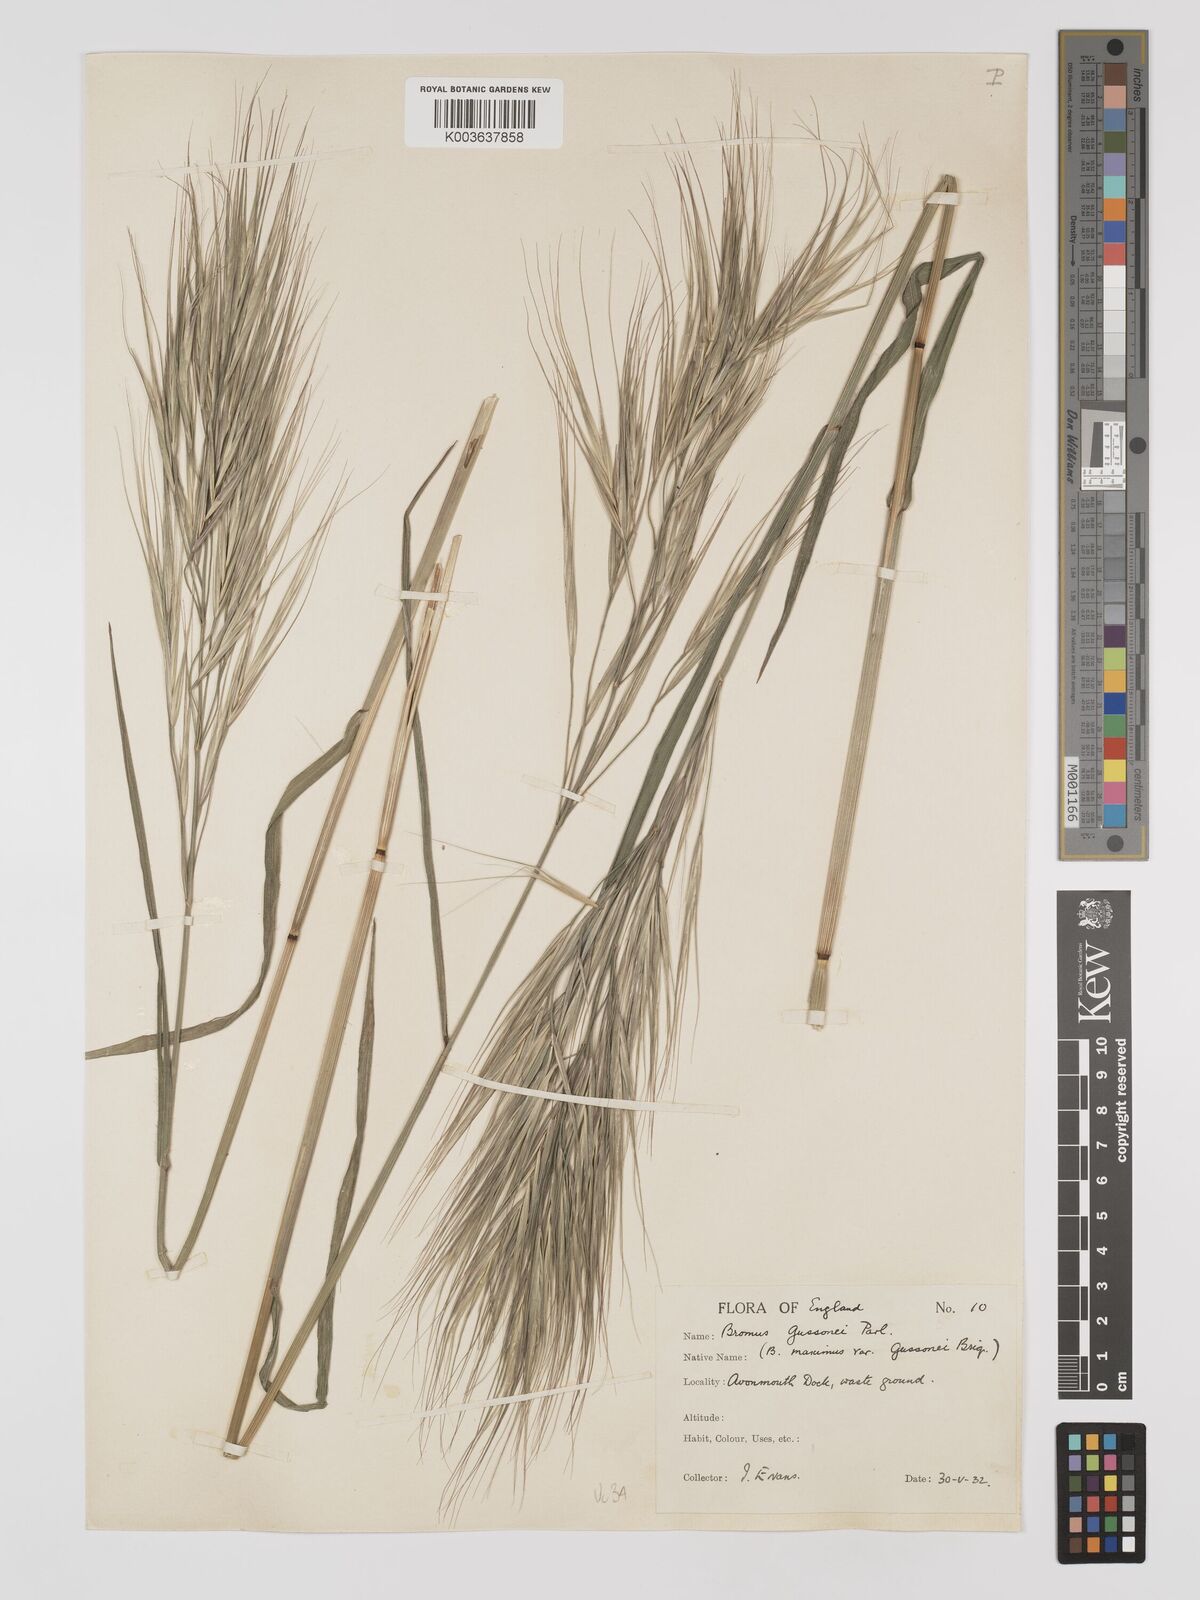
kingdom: Plantae
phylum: Tracheophyta
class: Liliopsida
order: Poales
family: Poaceae
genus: Bromus
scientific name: Bromus
